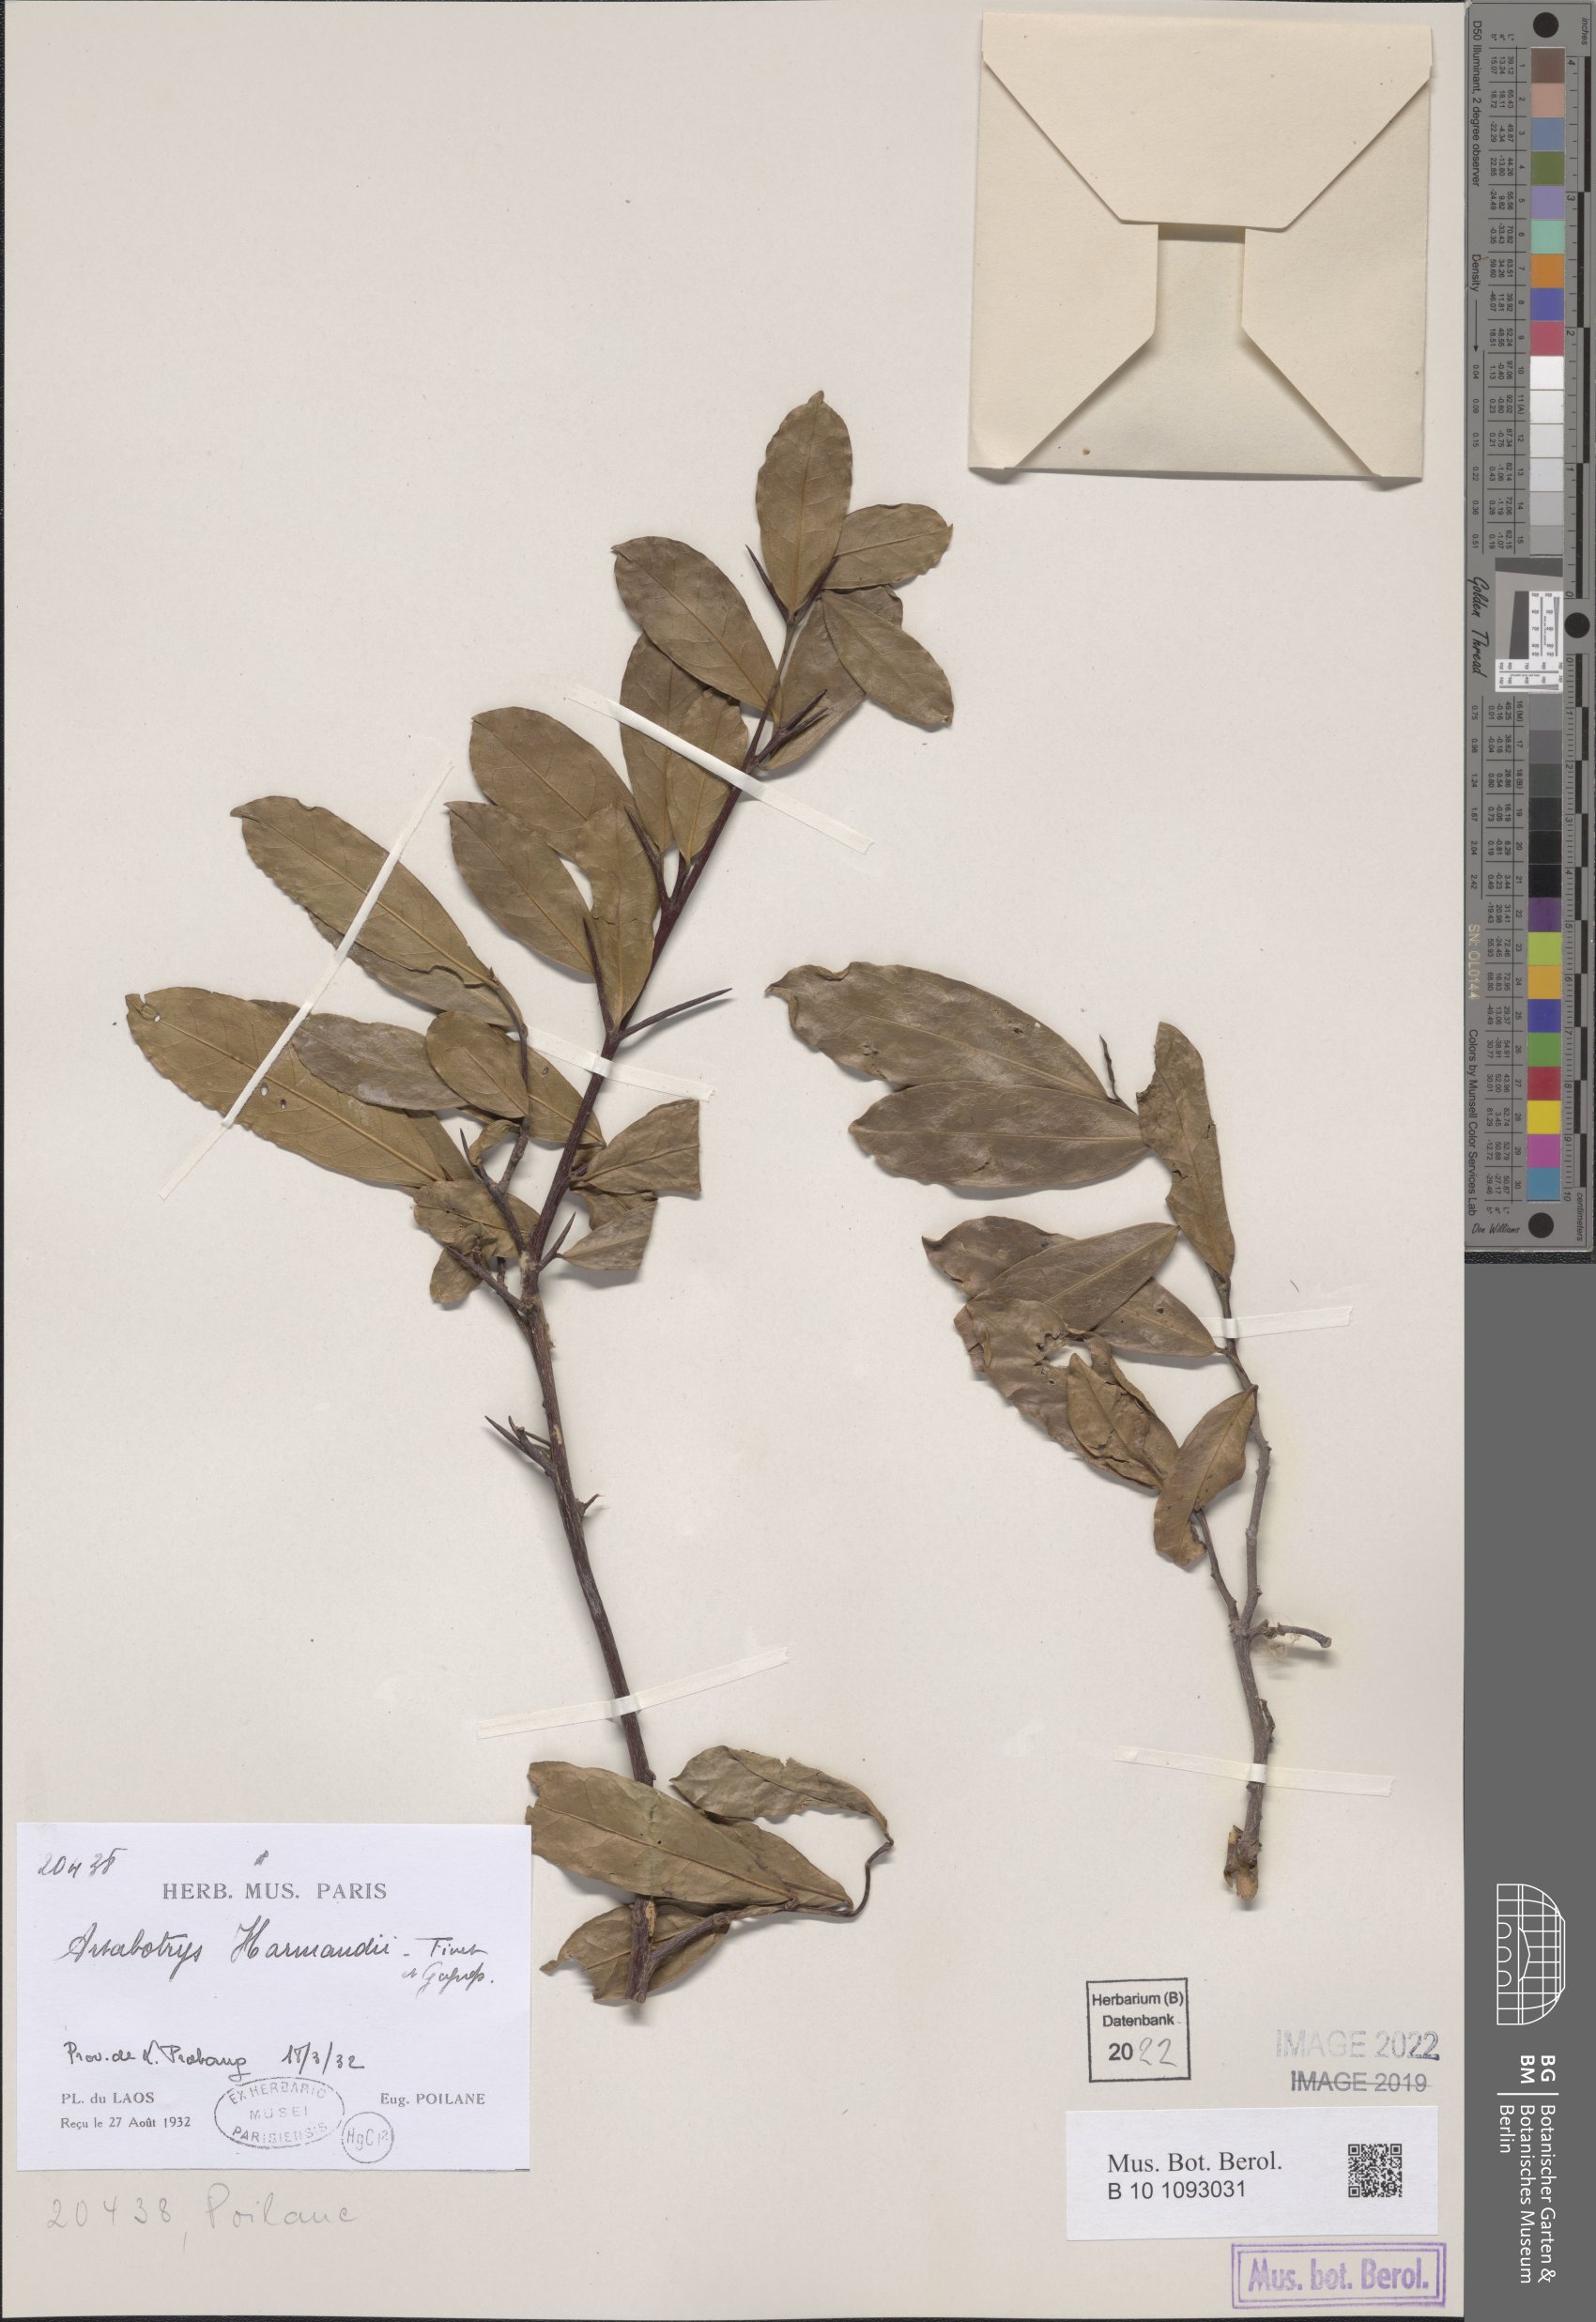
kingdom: Plantae
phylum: Tracheophyta
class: Magnoliopsida
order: Magnoliales
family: Annonaceae
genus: Artabotrys
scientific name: Artabotrys harmandii
